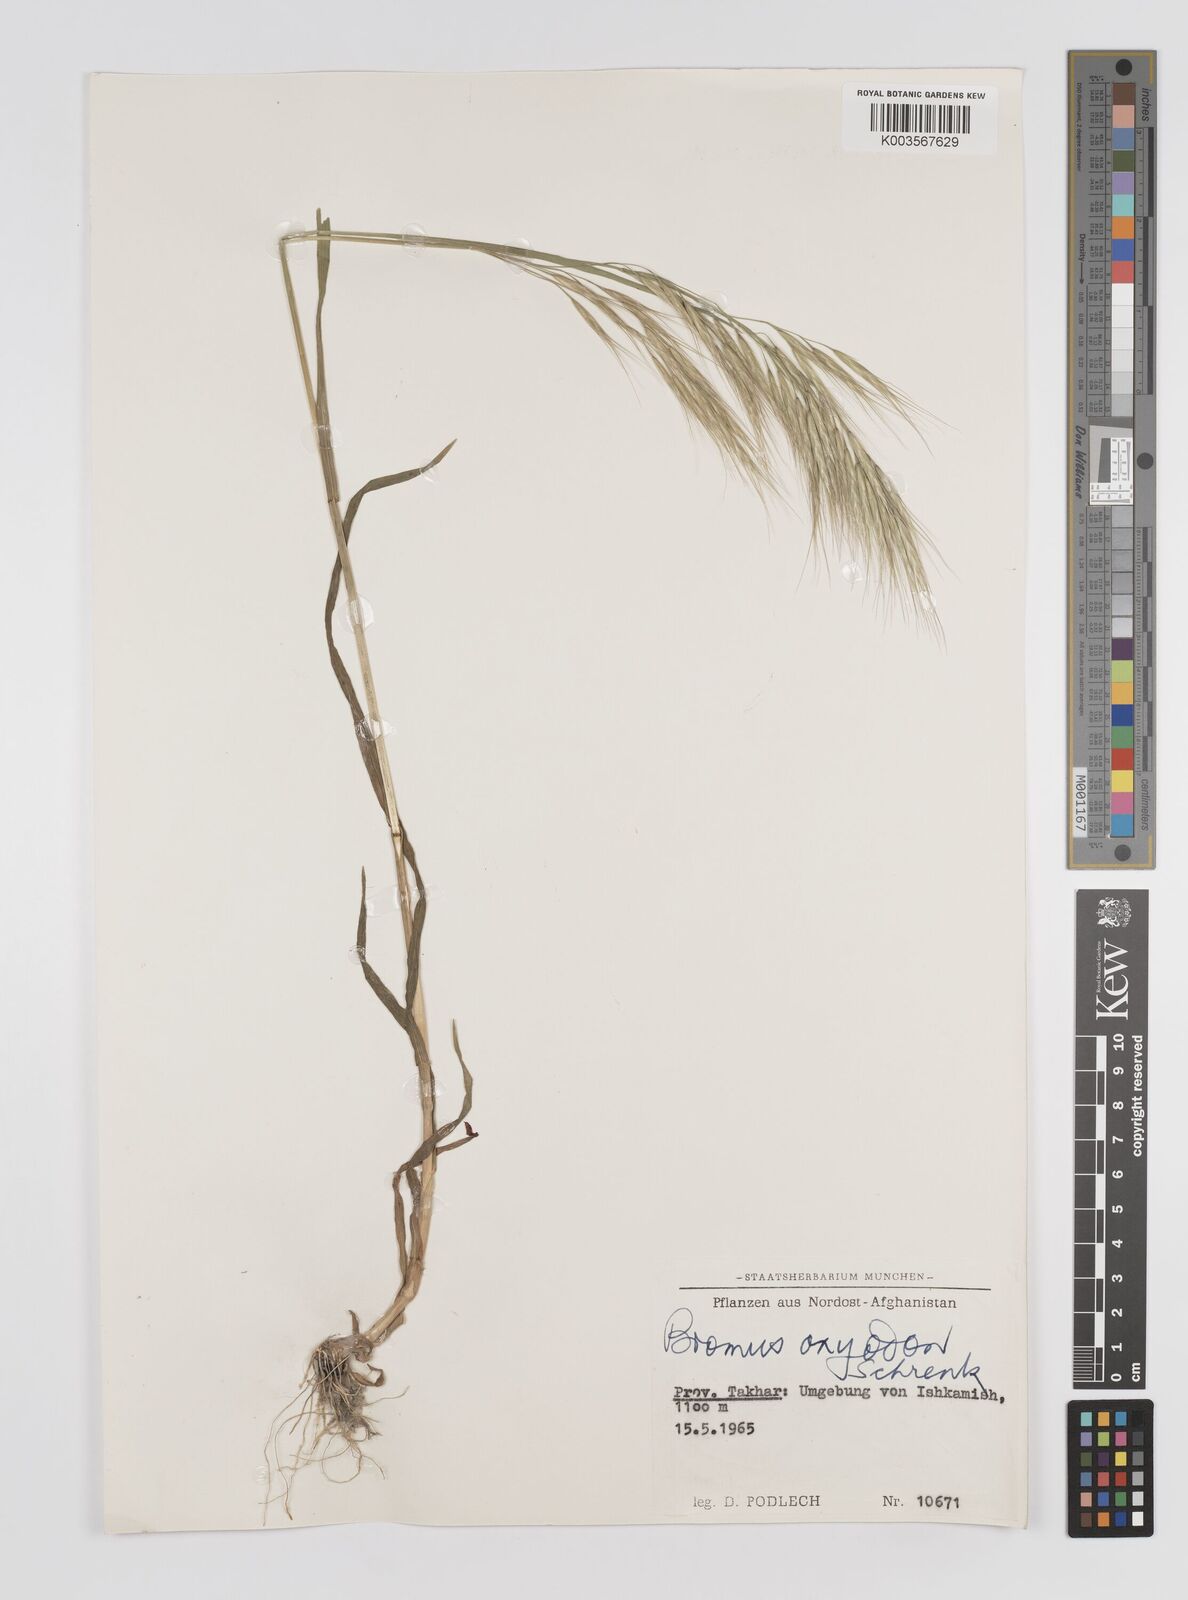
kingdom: Plantae
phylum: Tracheophyta
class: Liliopsida
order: Poales
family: Poaceae
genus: Bromus
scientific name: Bromus oxyodon
